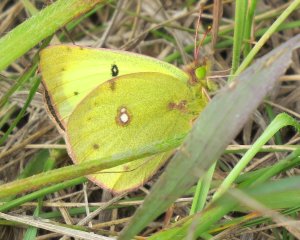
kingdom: Animalia
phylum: Arthropoda
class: Insecta
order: Lepidoptera
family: Pieridae
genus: Colias
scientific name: Colias philodice
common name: Clouded Sulphur
